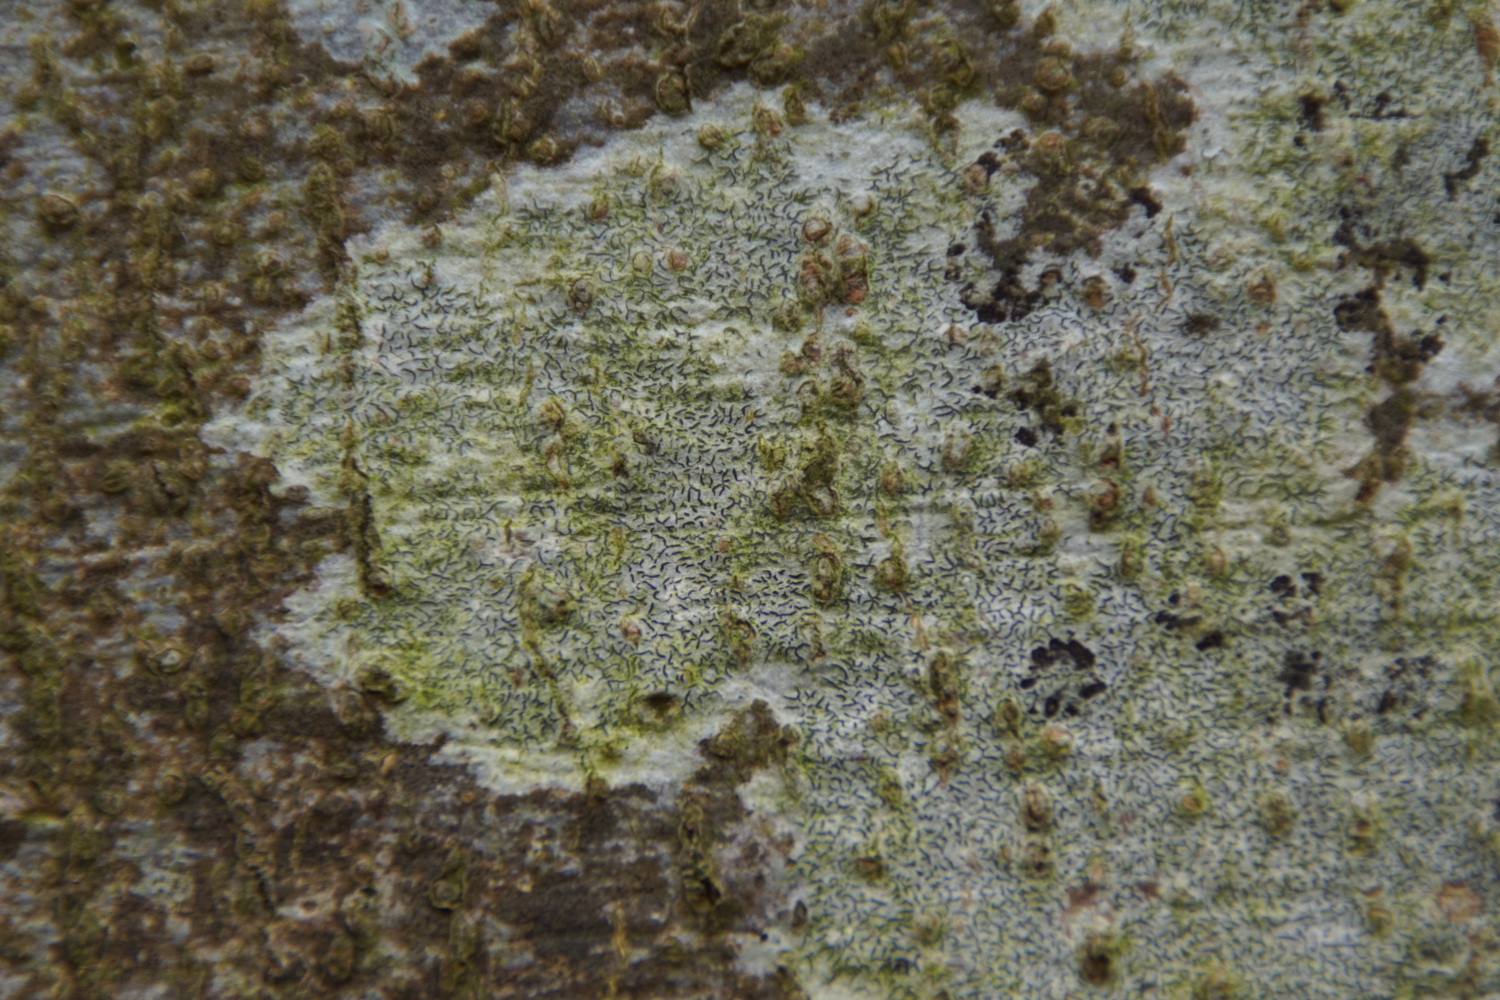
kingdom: Fungi
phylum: Ascomycota
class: Lecanoromycetes
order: Ostropales
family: Graphidaceae
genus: Graphis
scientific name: Graphis scripta
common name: almindelig skriftlav
